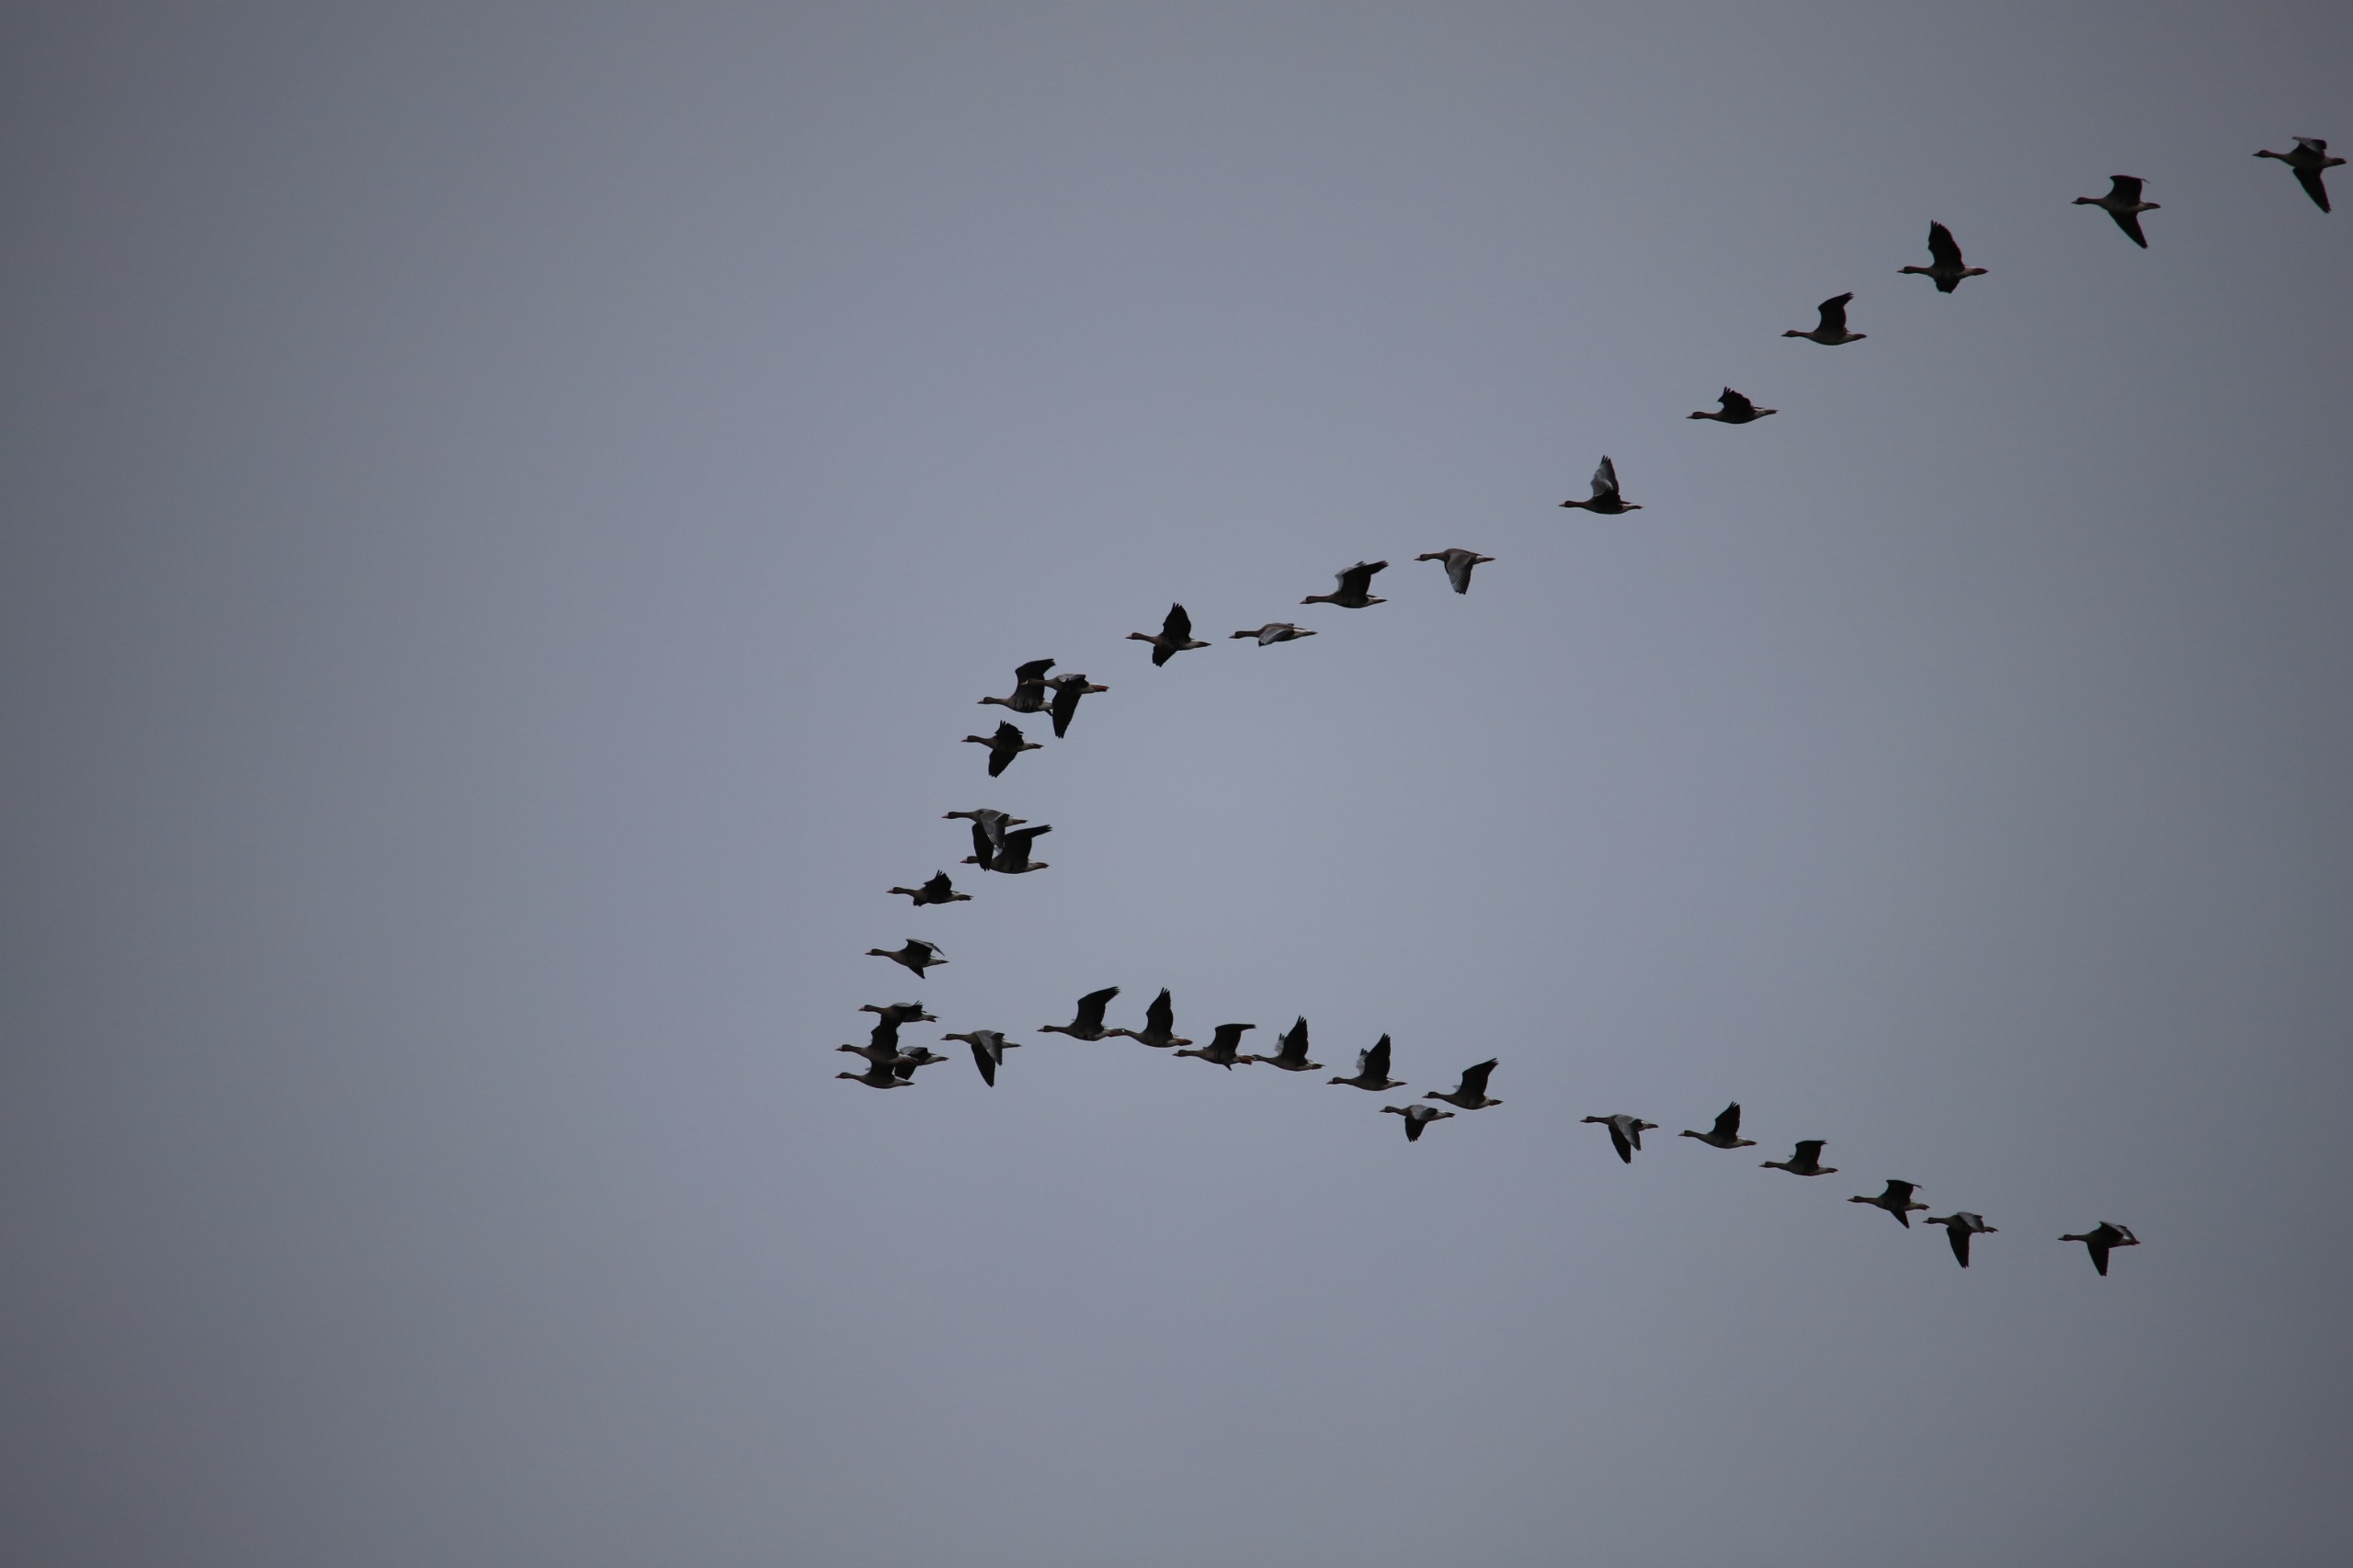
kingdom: Animalia
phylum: Chordata
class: Aves
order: Anseriformes
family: Anatidae
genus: Anser
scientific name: Anser albifrons
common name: Blisgås
